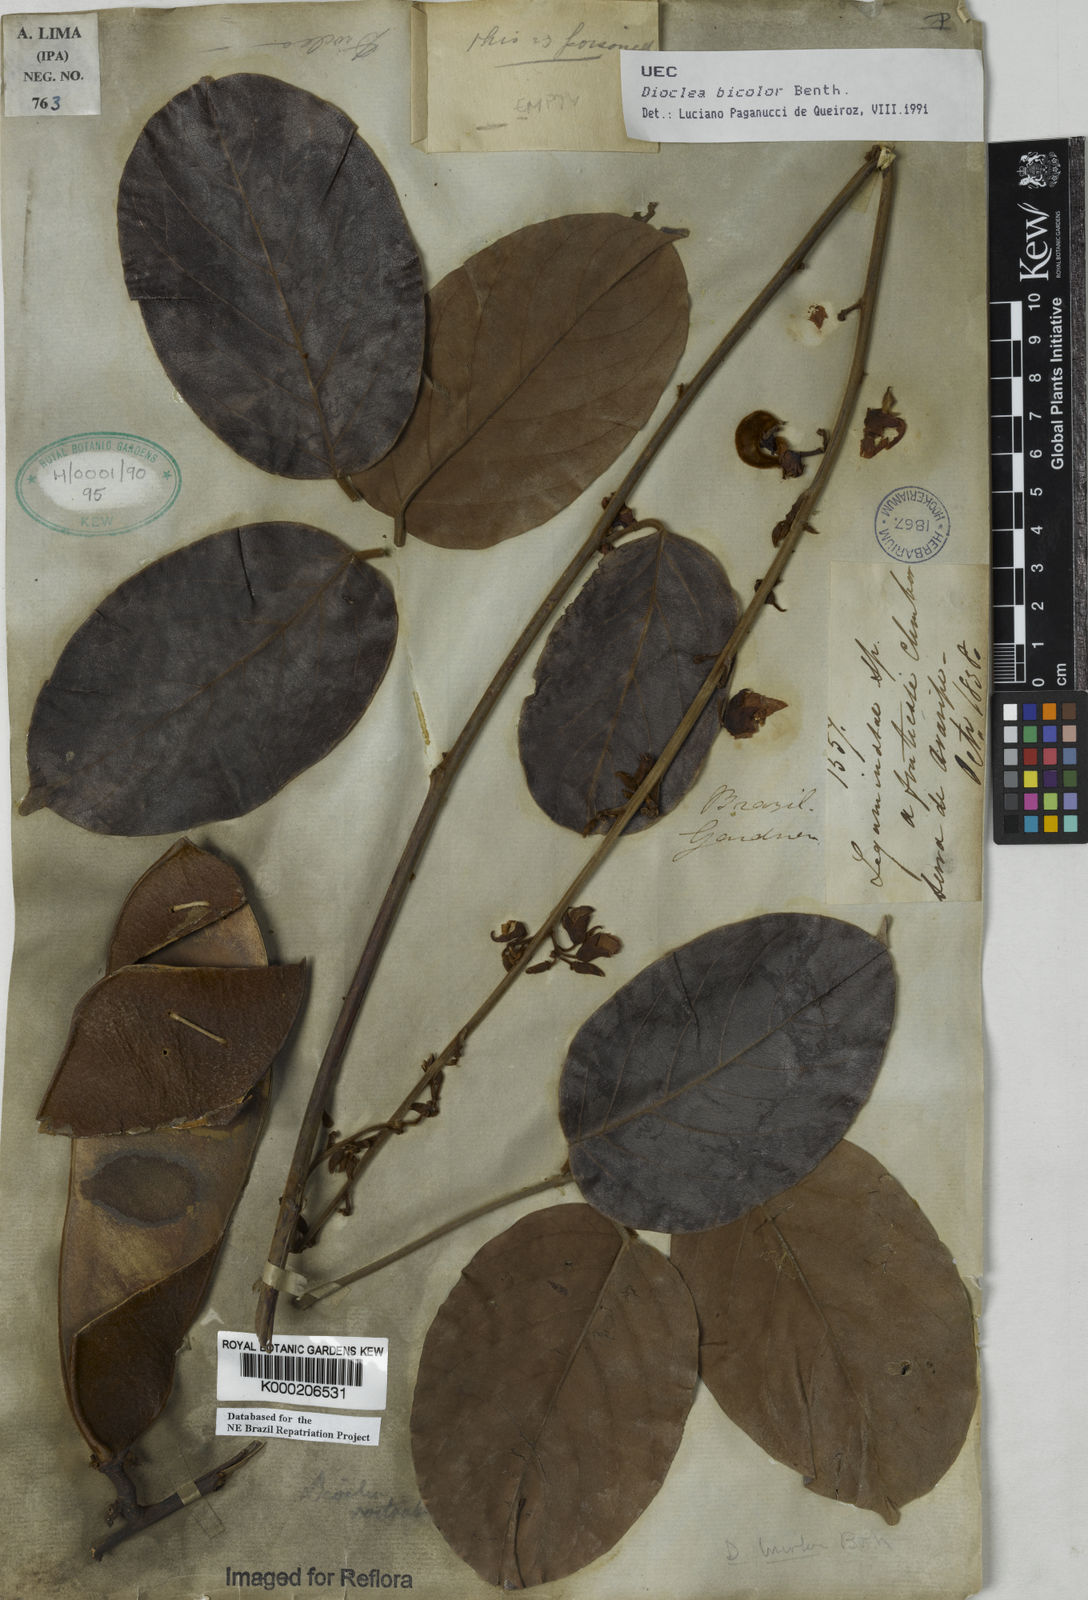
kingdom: Plantae
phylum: Tracheophyta
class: Magnoliopsida
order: Fabales
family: Fabaceae
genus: Macropsychanthus
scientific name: Macropsychanthus bicolor
